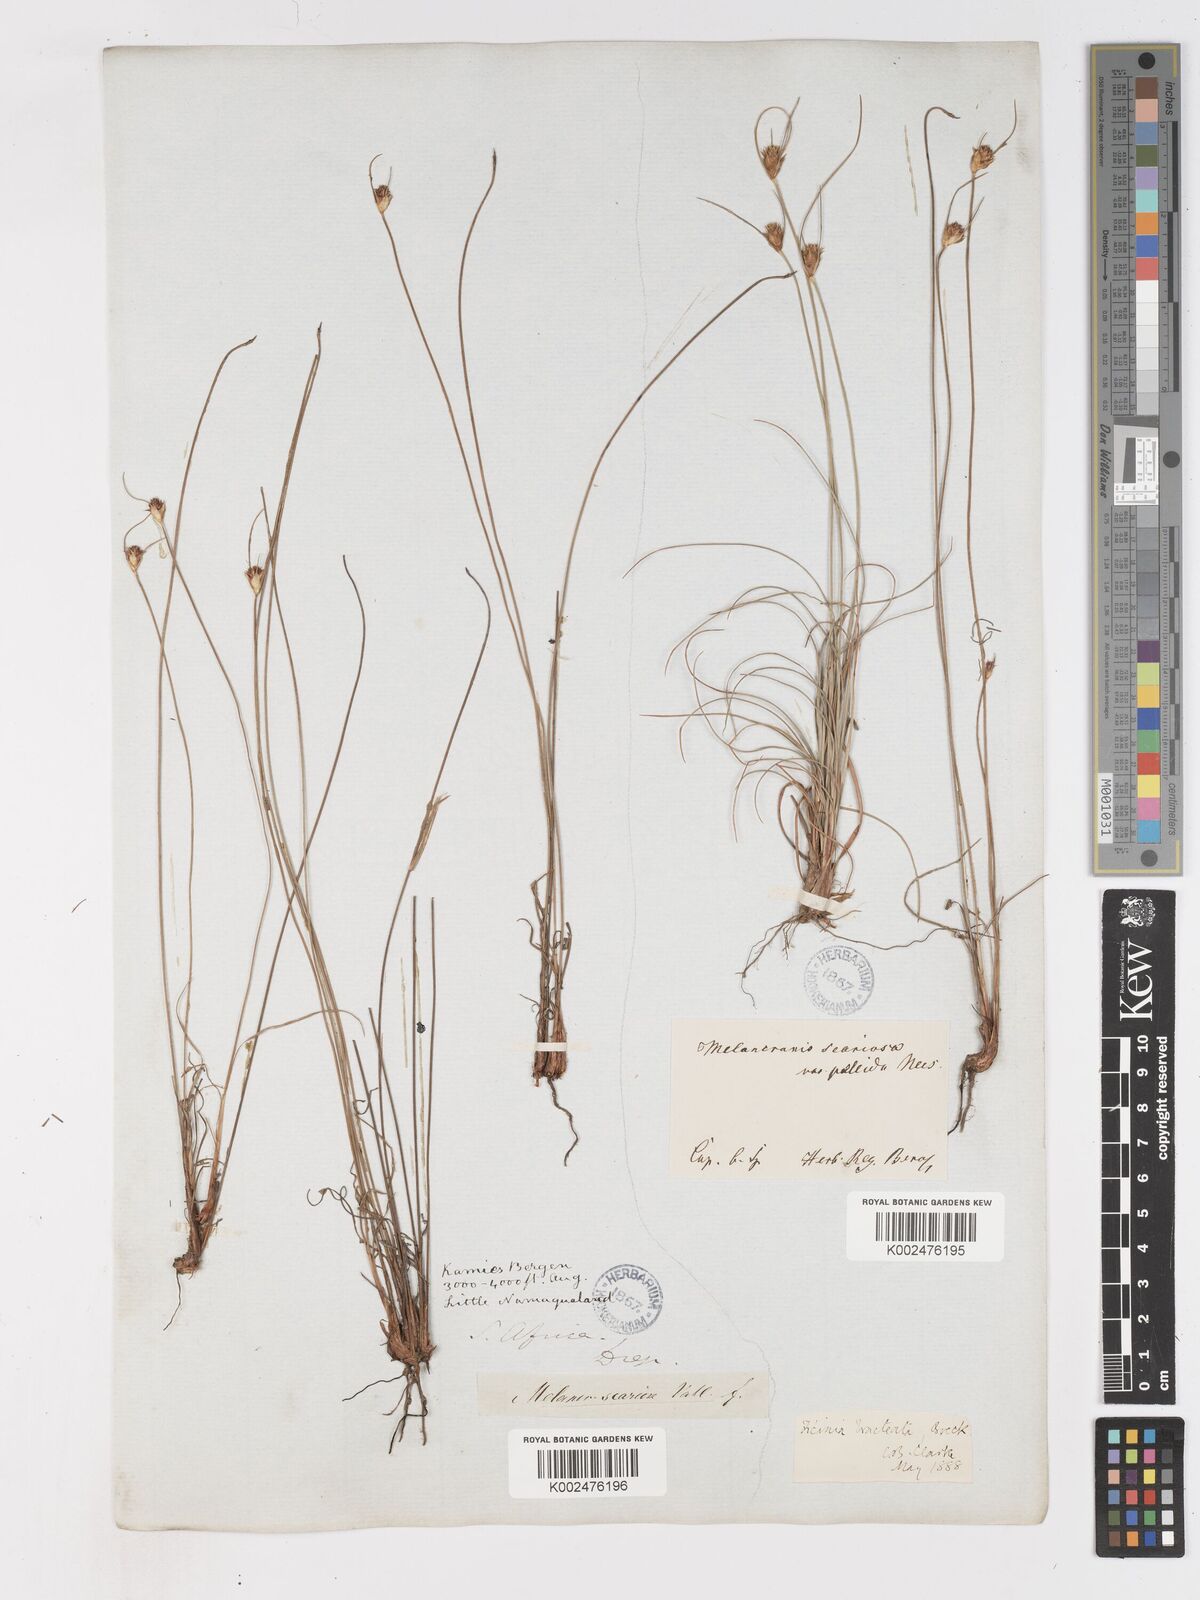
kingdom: Plantae
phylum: Tracheophyta
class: Liliopsida
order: Poales
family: Cyperaceae
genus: Ficinia
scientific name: Ficinia nigrescens
